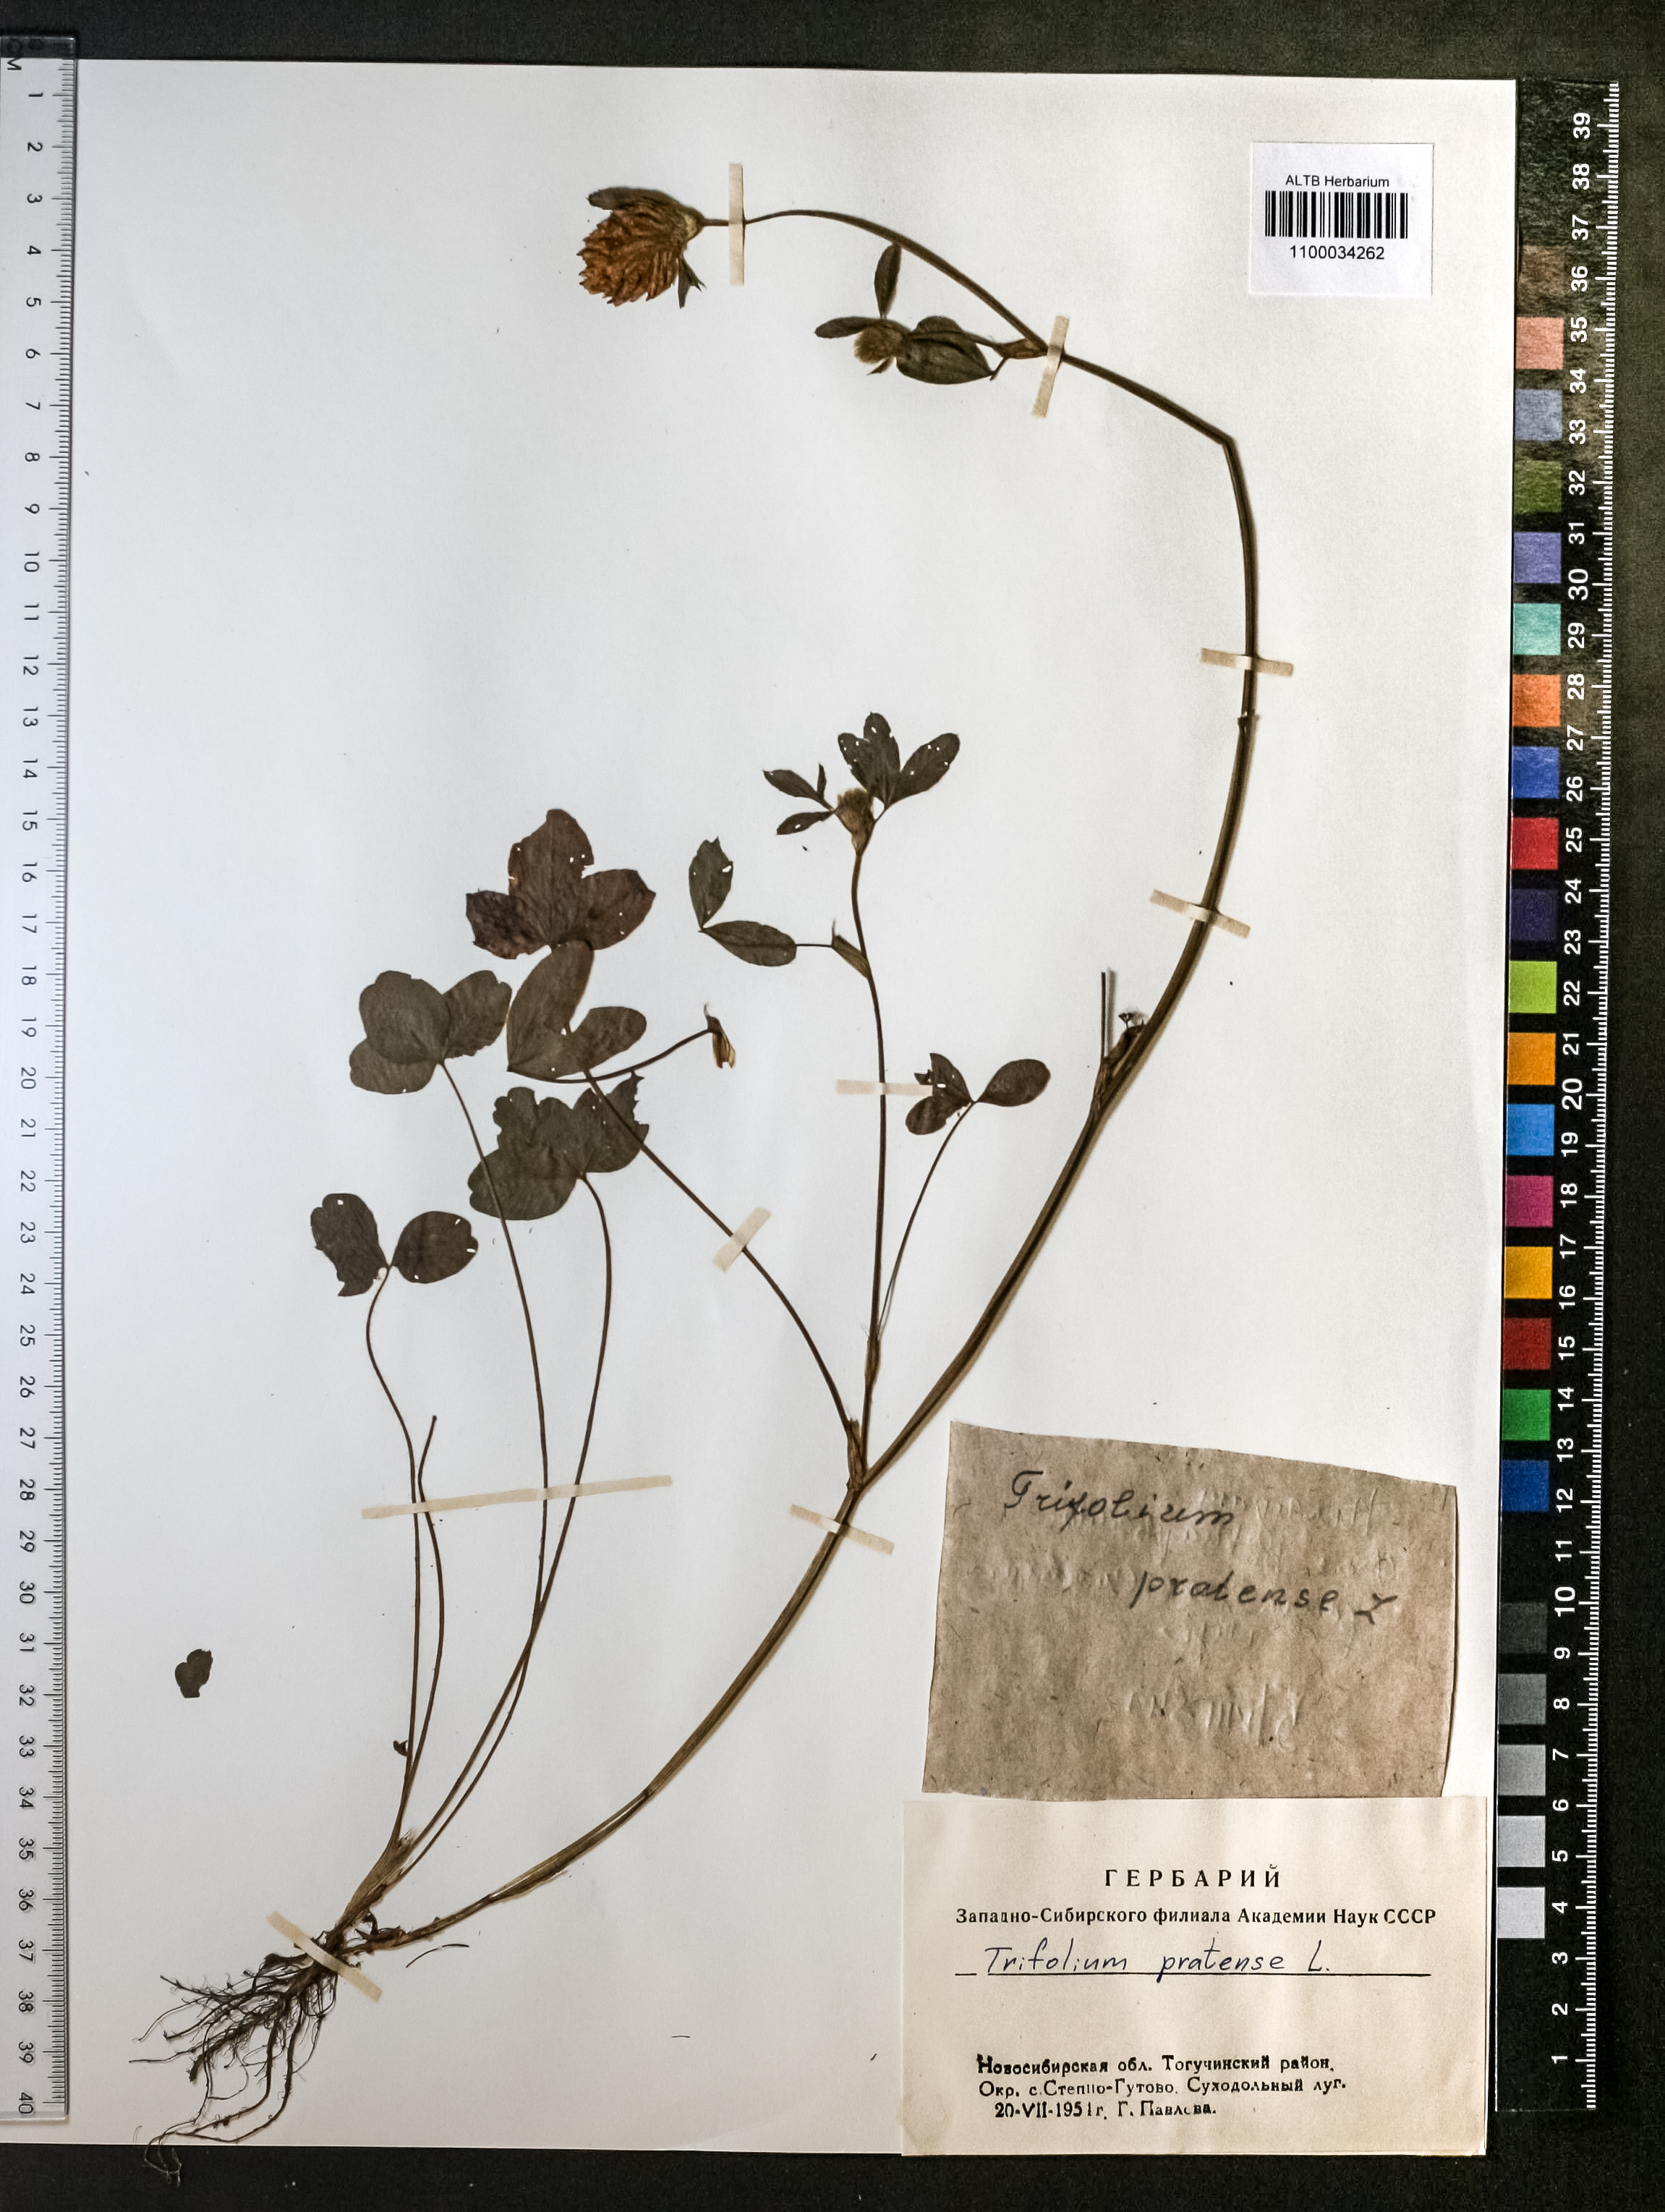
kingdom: Plantae
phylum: Tracheophyta
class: Magnoliopsida
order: Fabales
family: Fabaceae
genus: Trifolium
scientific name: Trifolium pratense
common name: Red clover
